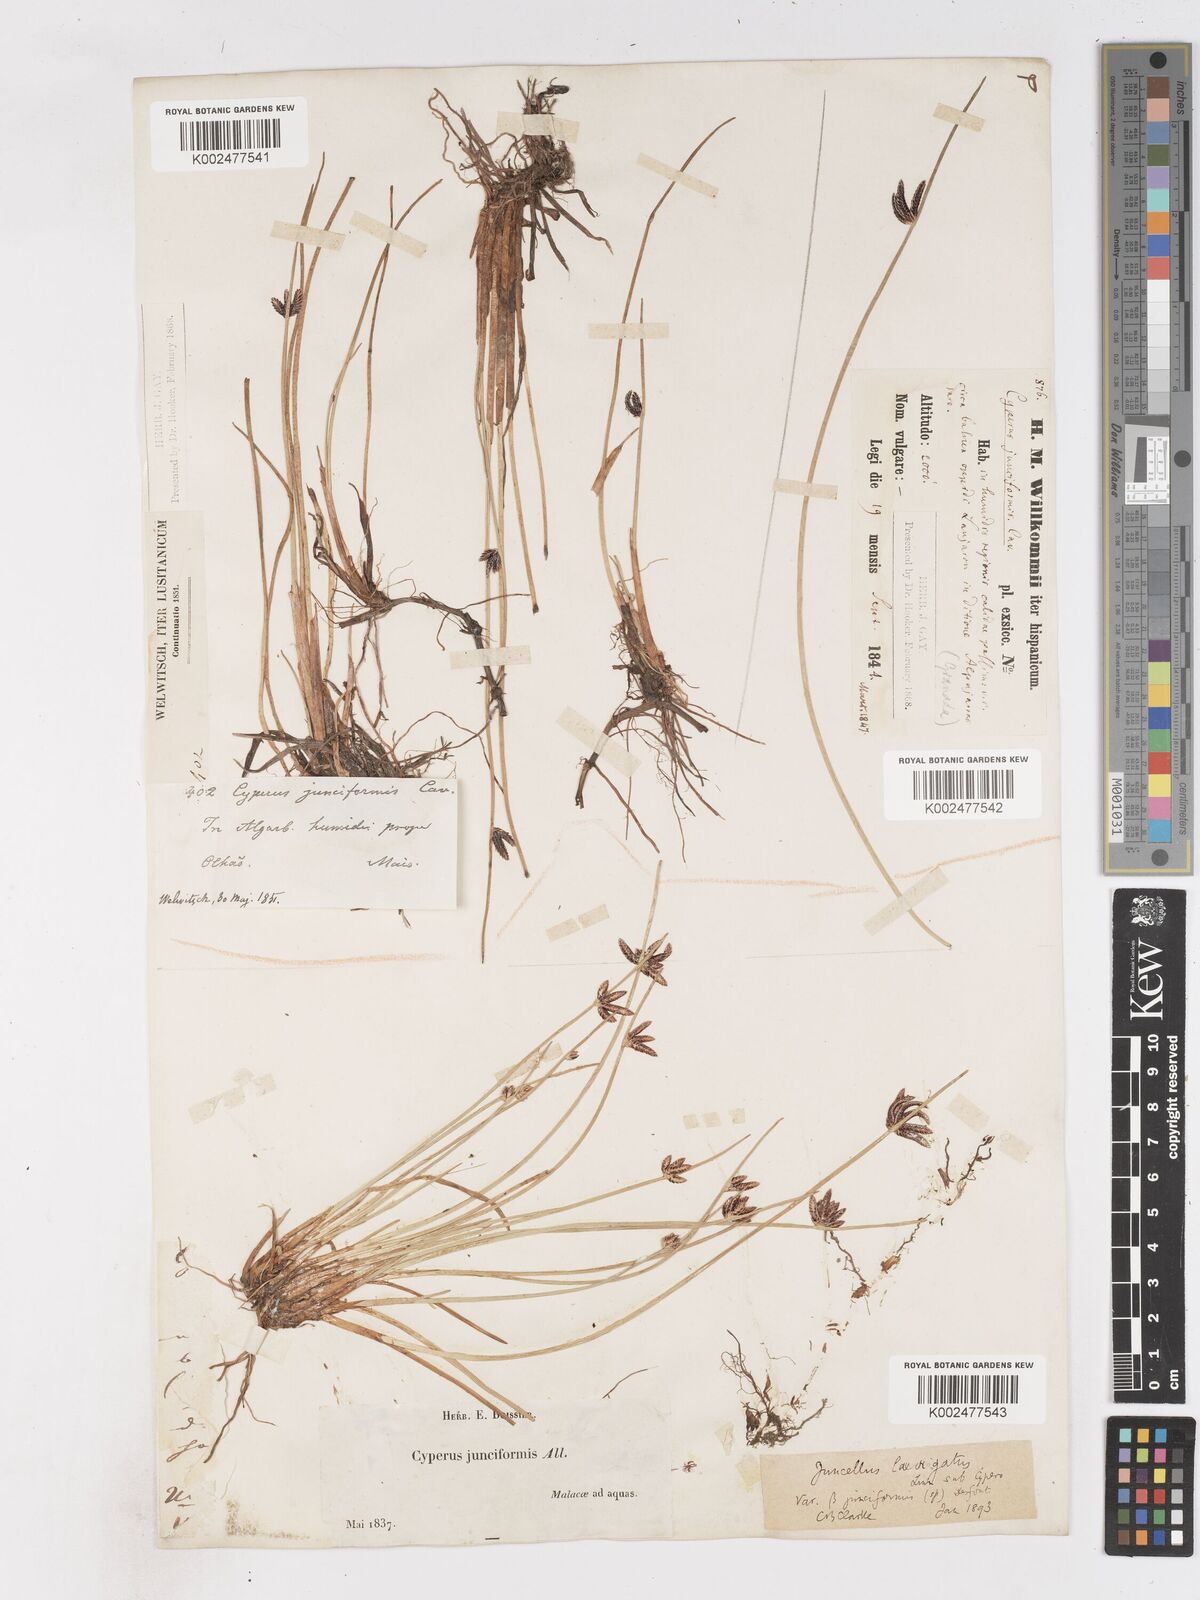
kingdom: Plantae
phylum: Tracheophyta
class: Liliopsida
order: Poales
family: Cyperaceae
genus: Cyperus
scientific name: Cyperus laevigatus
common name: Smooth flat sedge
